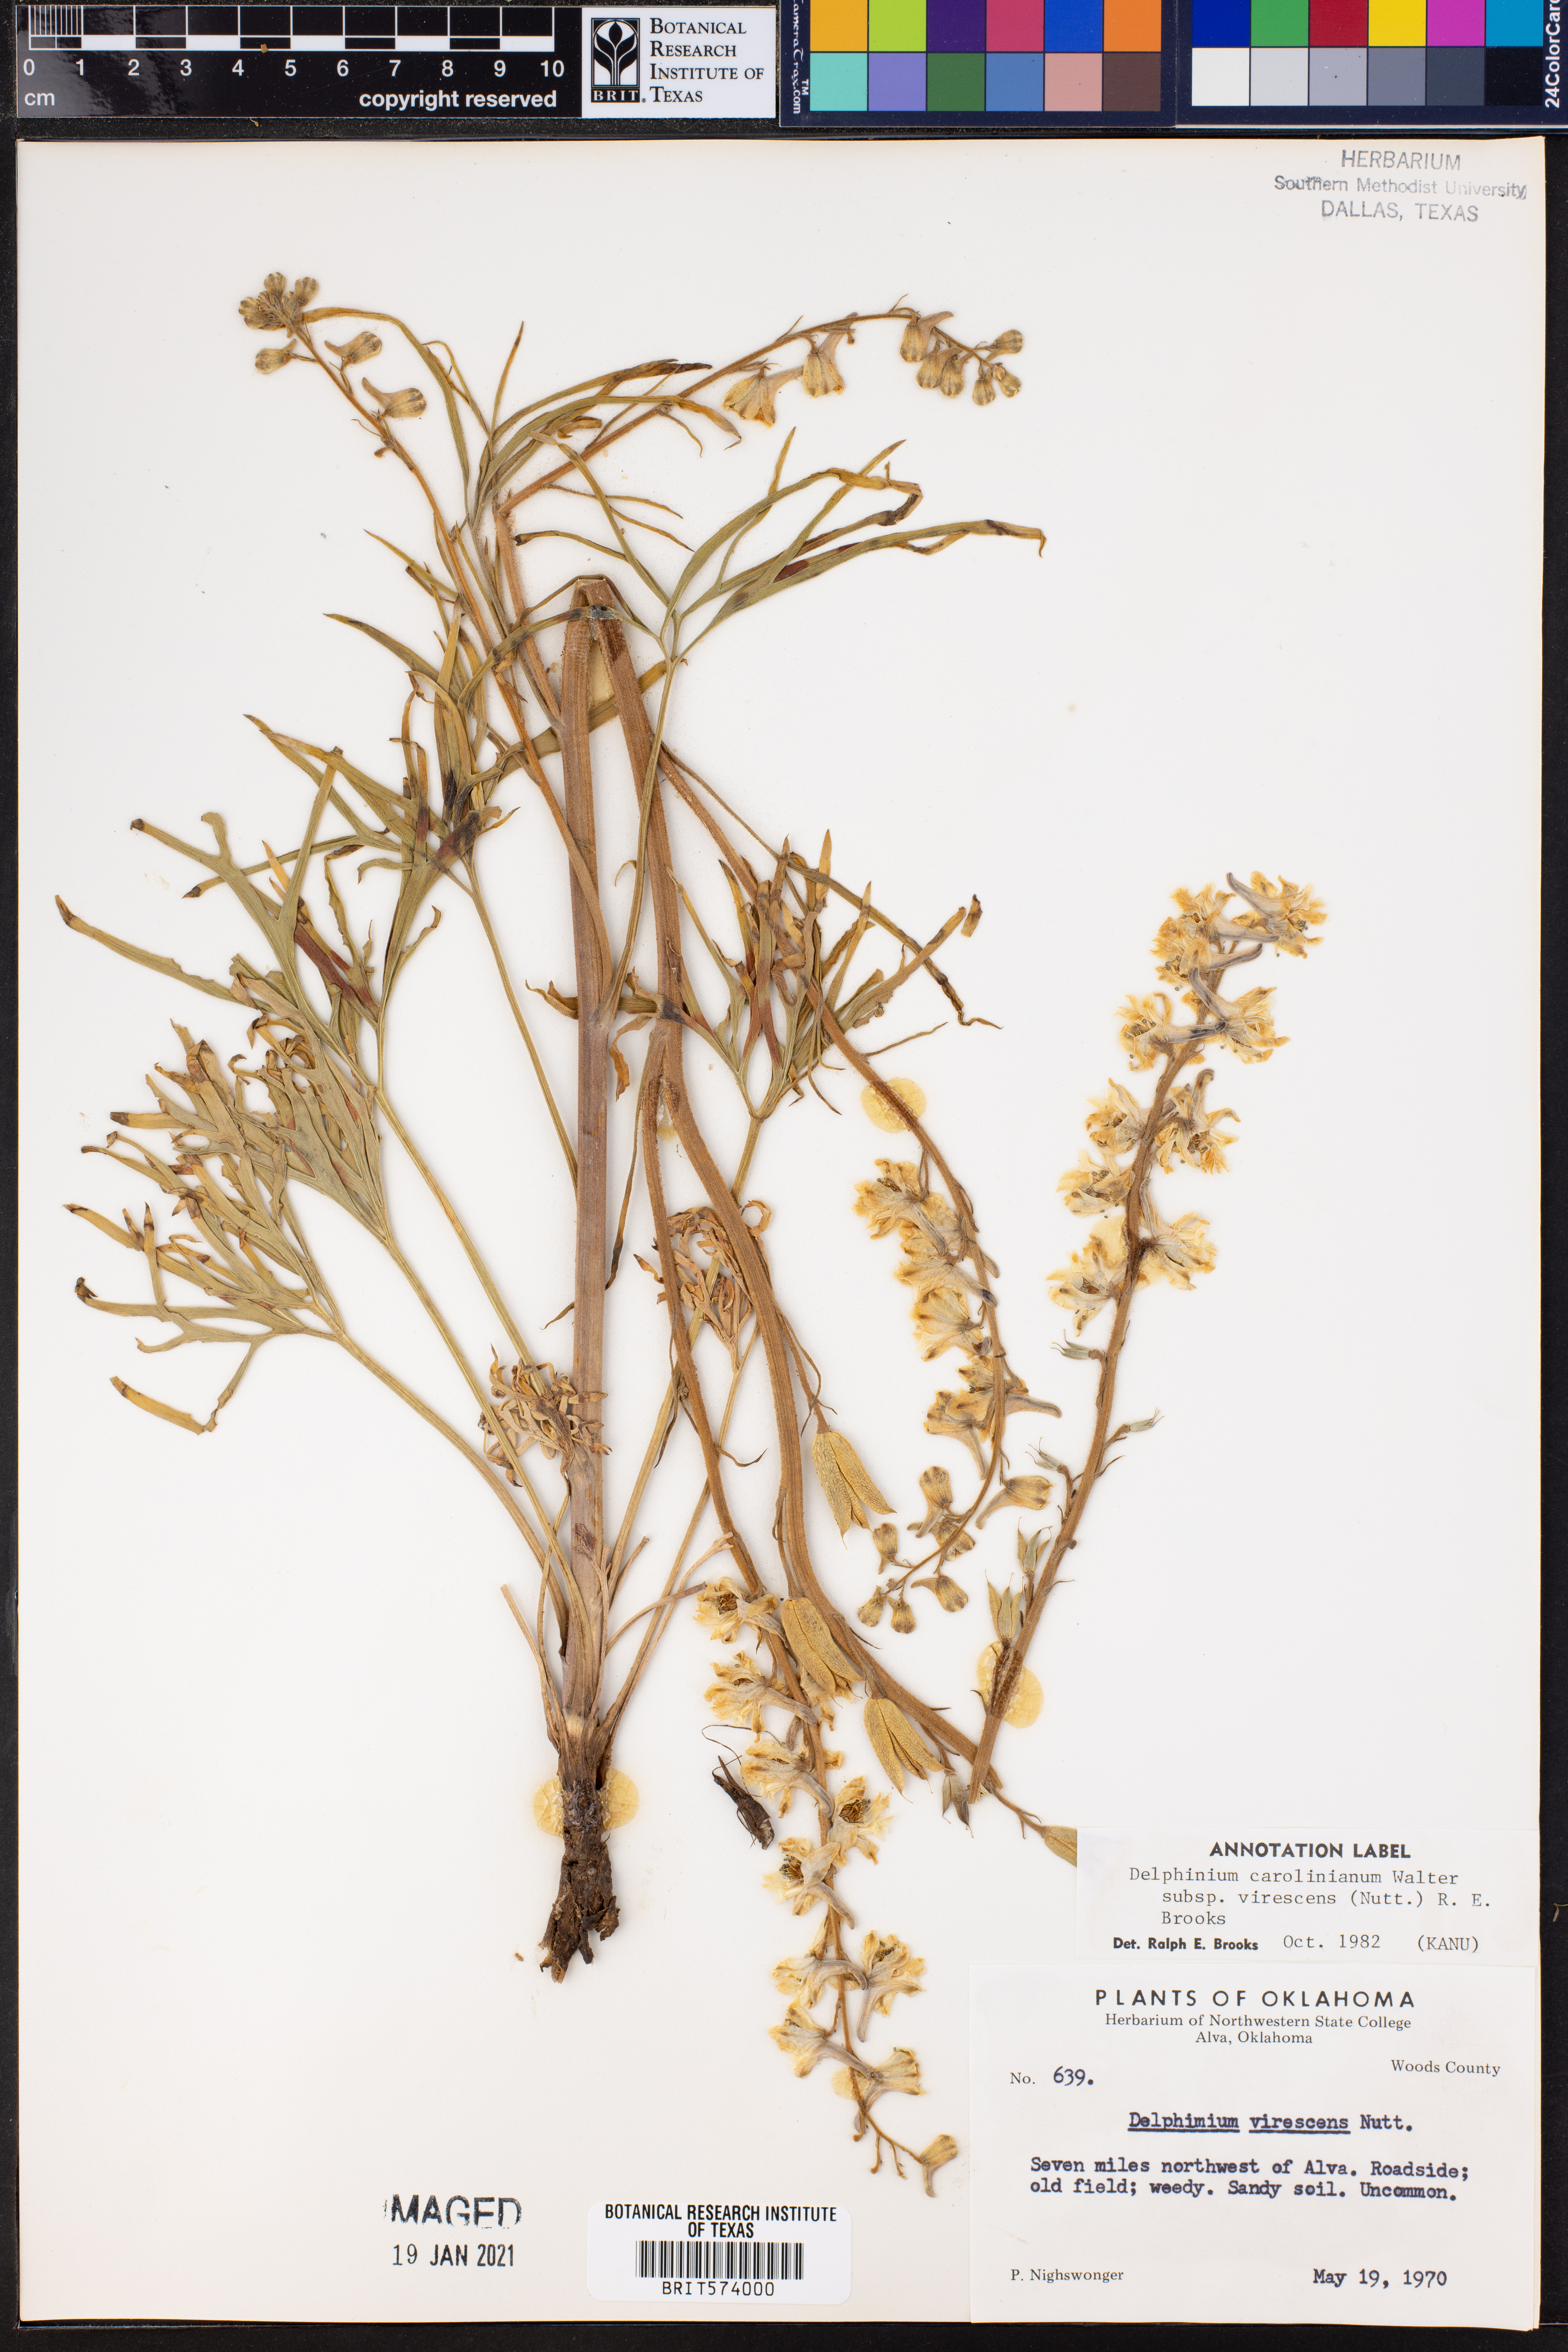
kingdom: Plantae
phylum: Tracheophyta
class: Magnoliopsida
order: Ranunculales
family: Ranunculaceae
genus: Delphinium
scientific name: Delphinium carolinianum
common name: Carolina larkspur
